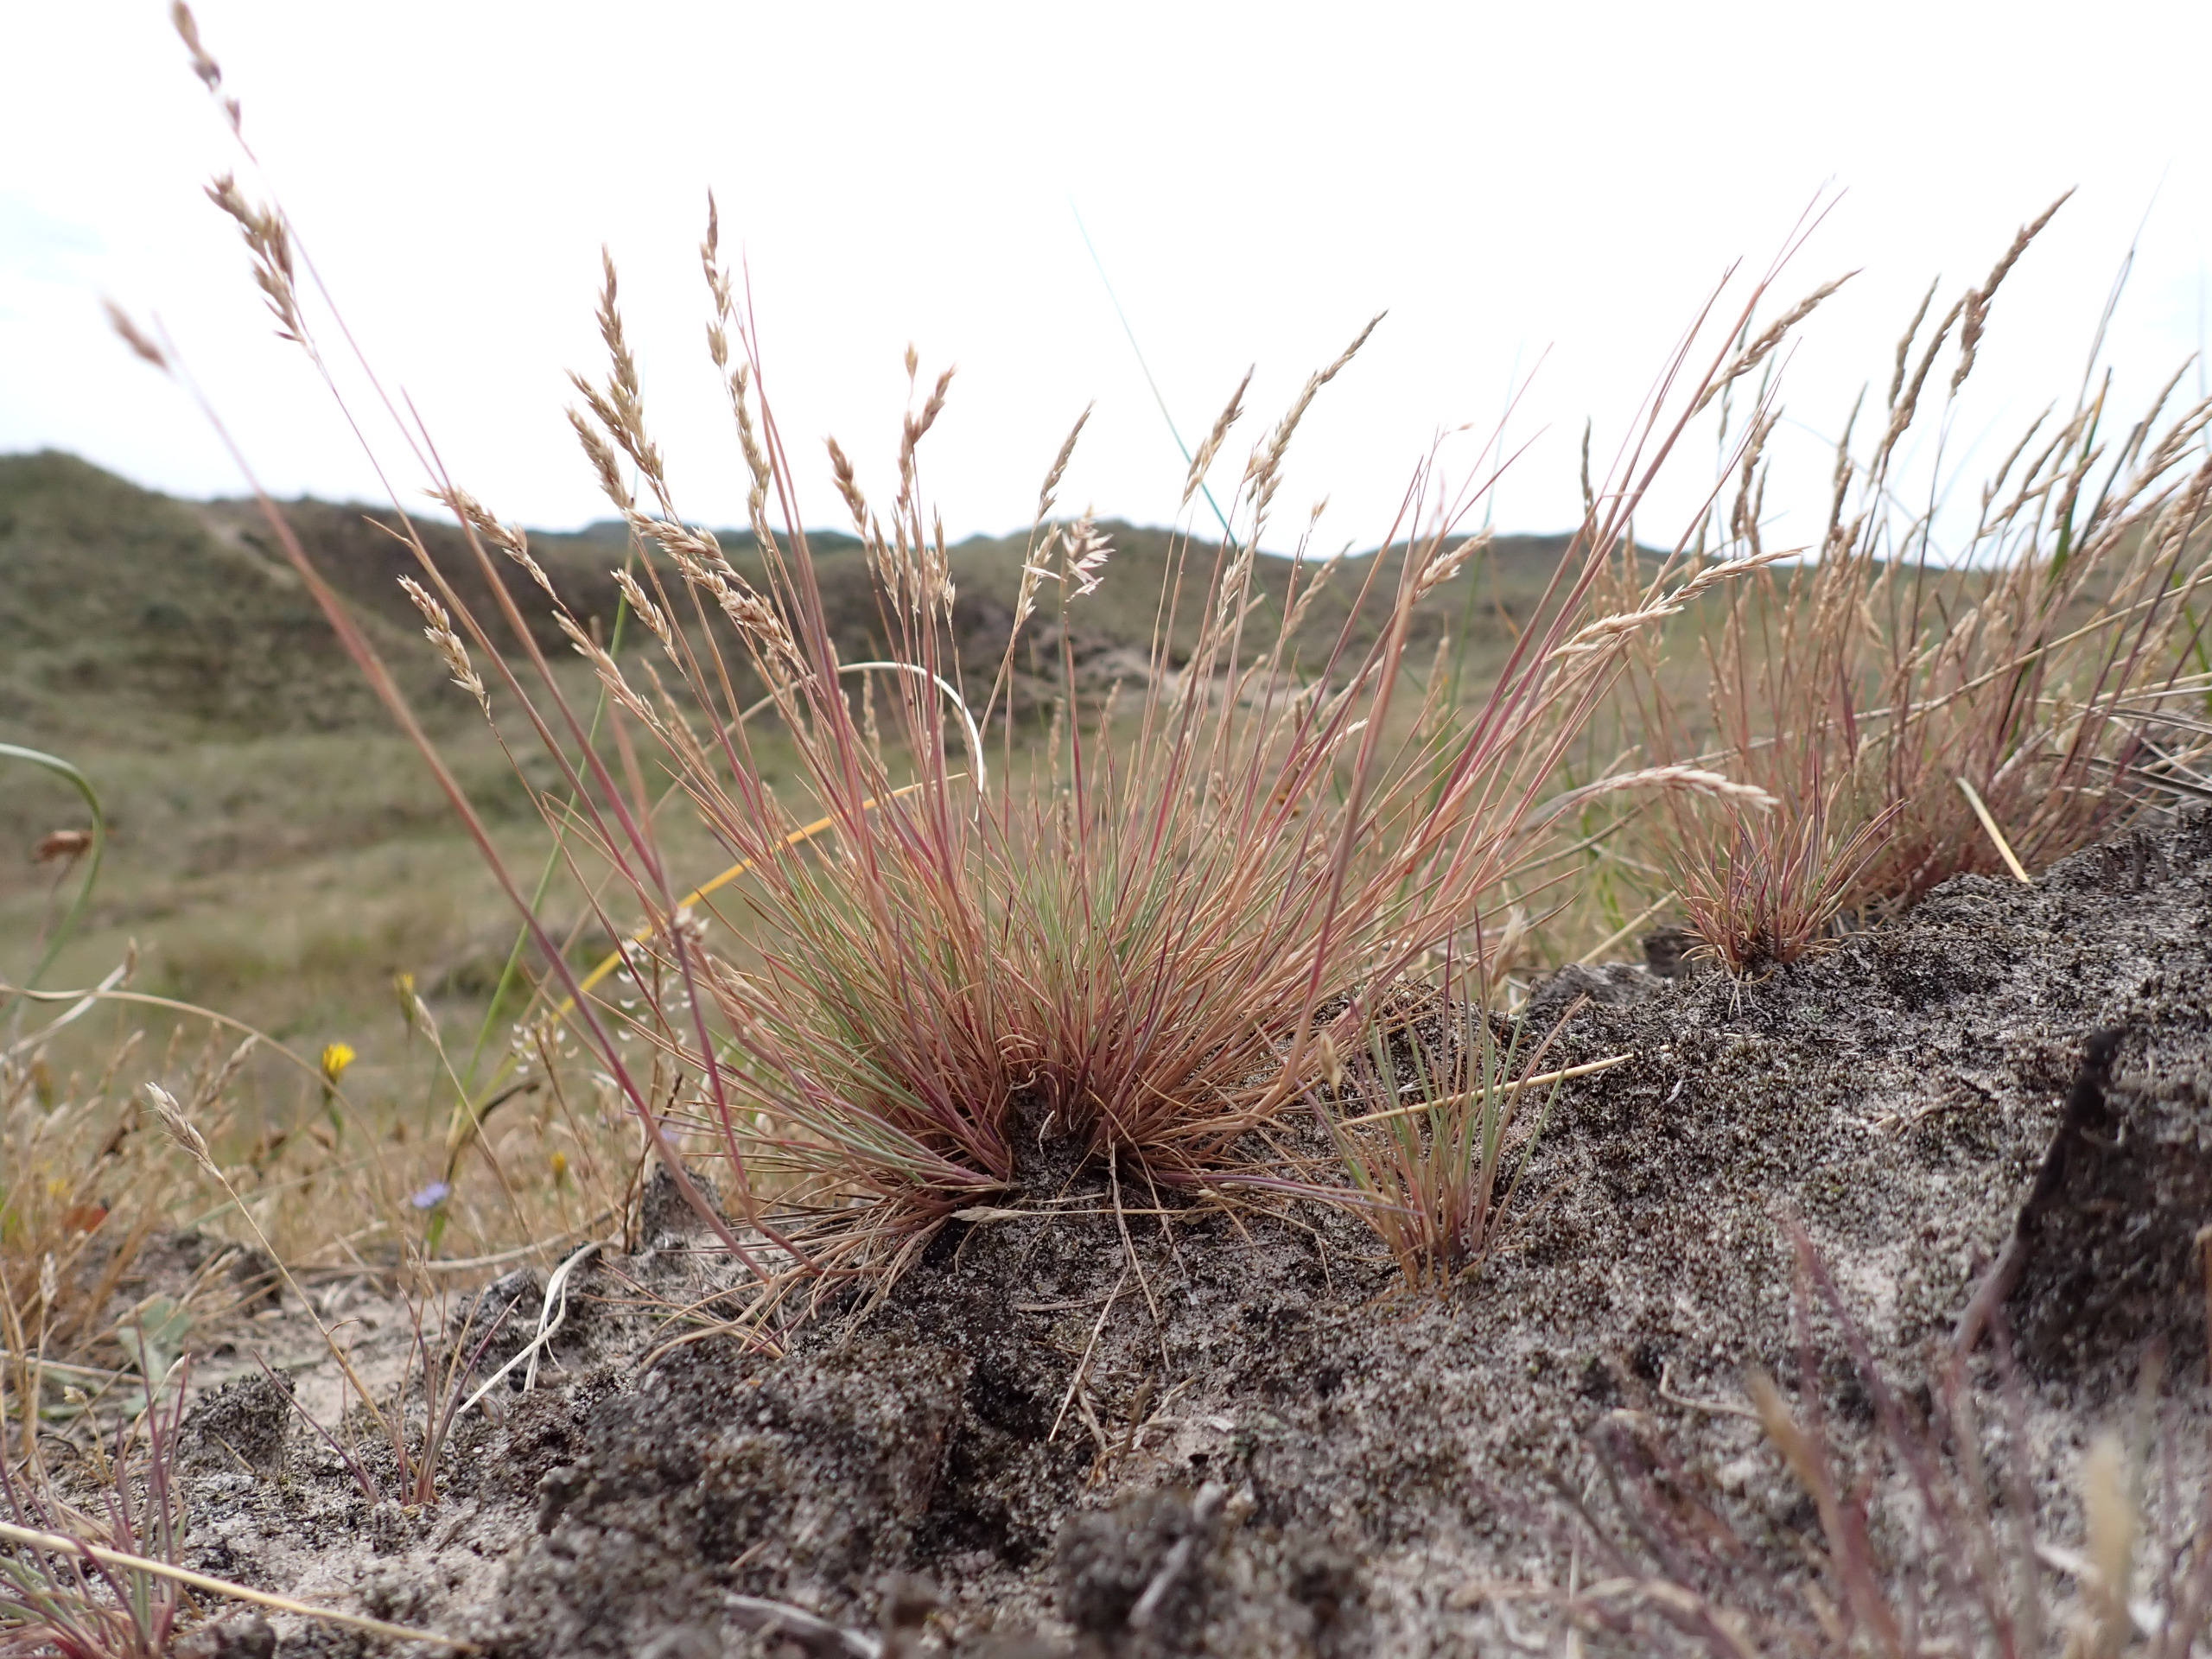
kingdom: Plantae
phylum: Tracheophyta
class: Liliopsida
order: Poales
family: Poaceae
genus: Corynephorus
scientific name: Corynephorus canescens
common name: Sandskæg
